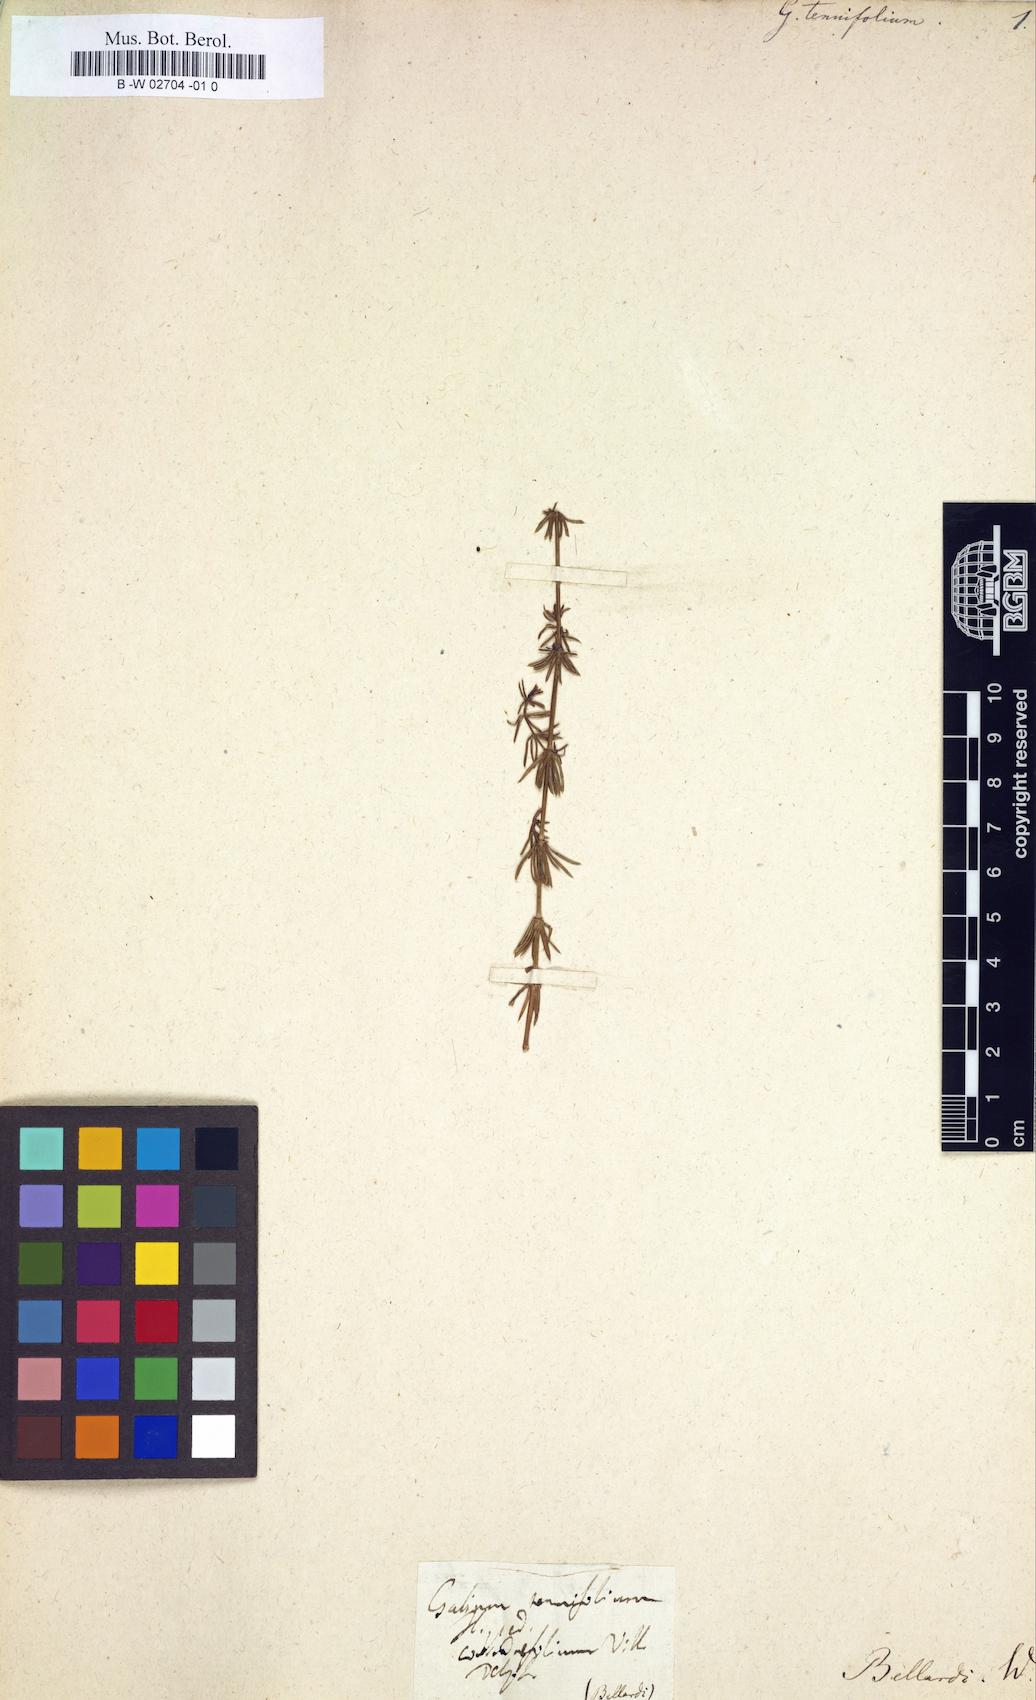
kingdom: Plantae
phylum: Tracheophyta
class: Magnoliopsida
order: Gentianales
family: Rubiaceae
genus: Galium
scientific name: Galium lucidum
